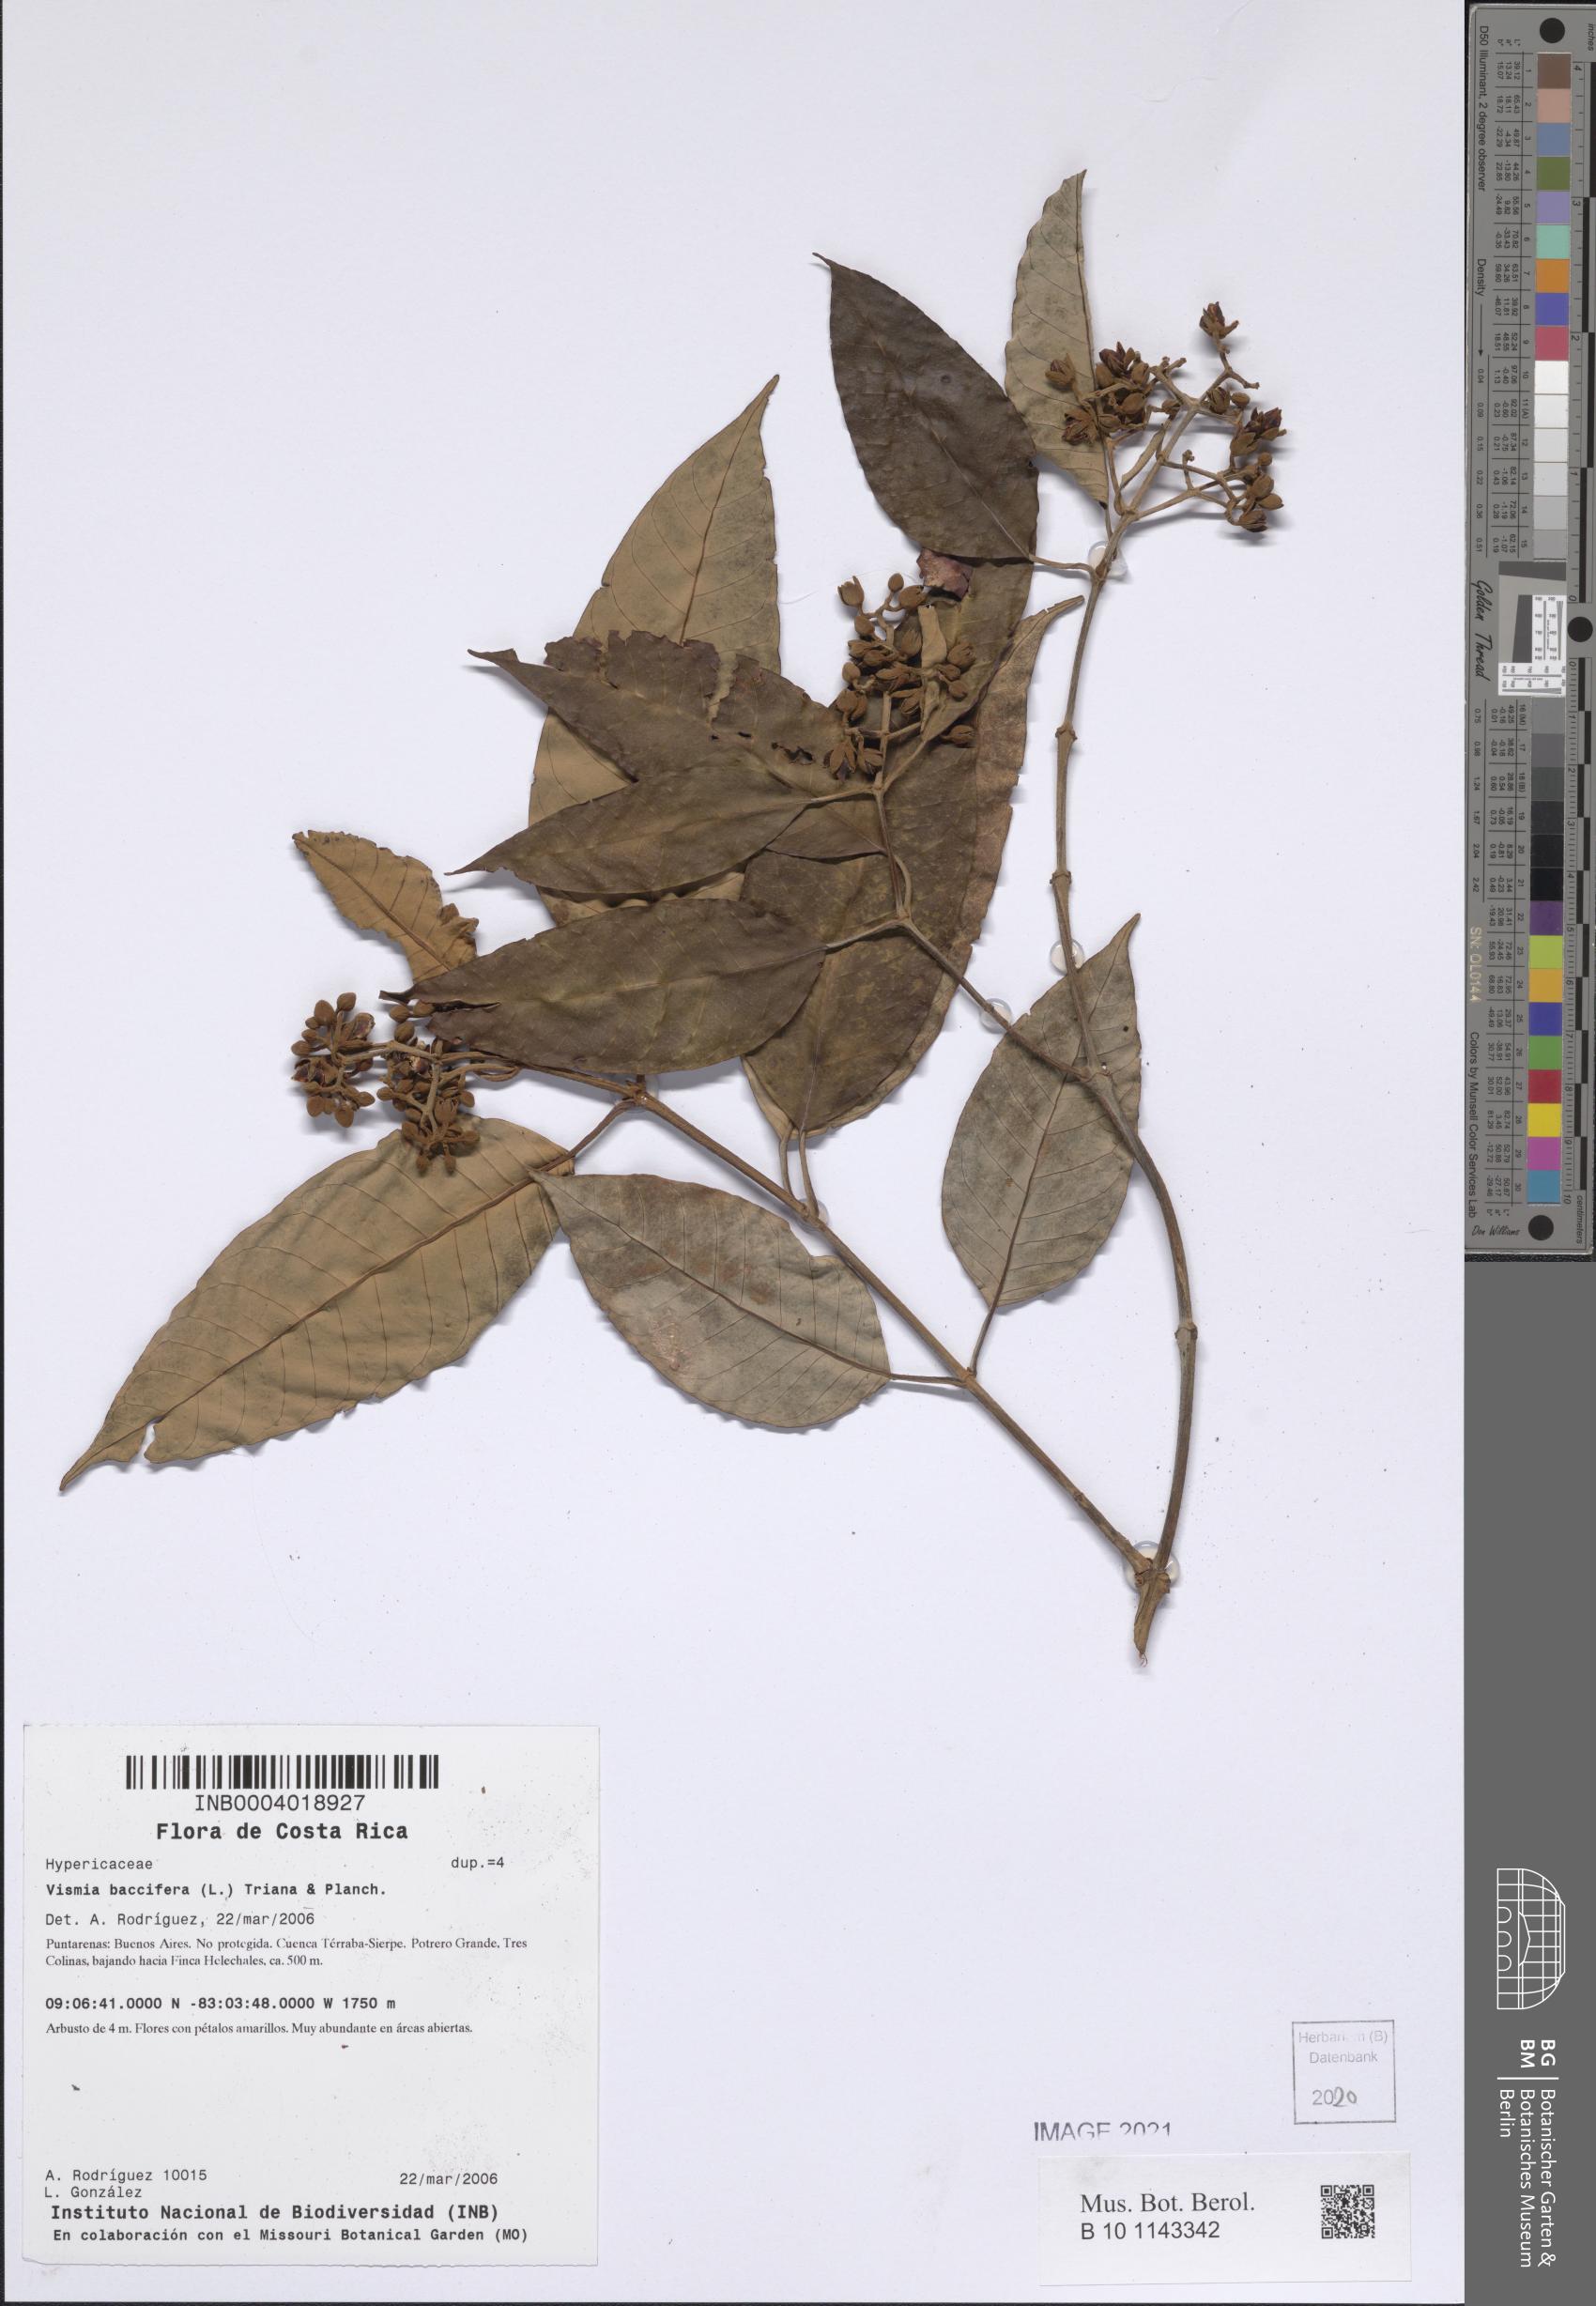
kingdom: Plantae
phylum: Tracheophyta
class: Magnoliopsida
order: Malpighiales
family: Hypericaceae
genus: Vismia
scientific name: Vismia baccifera
